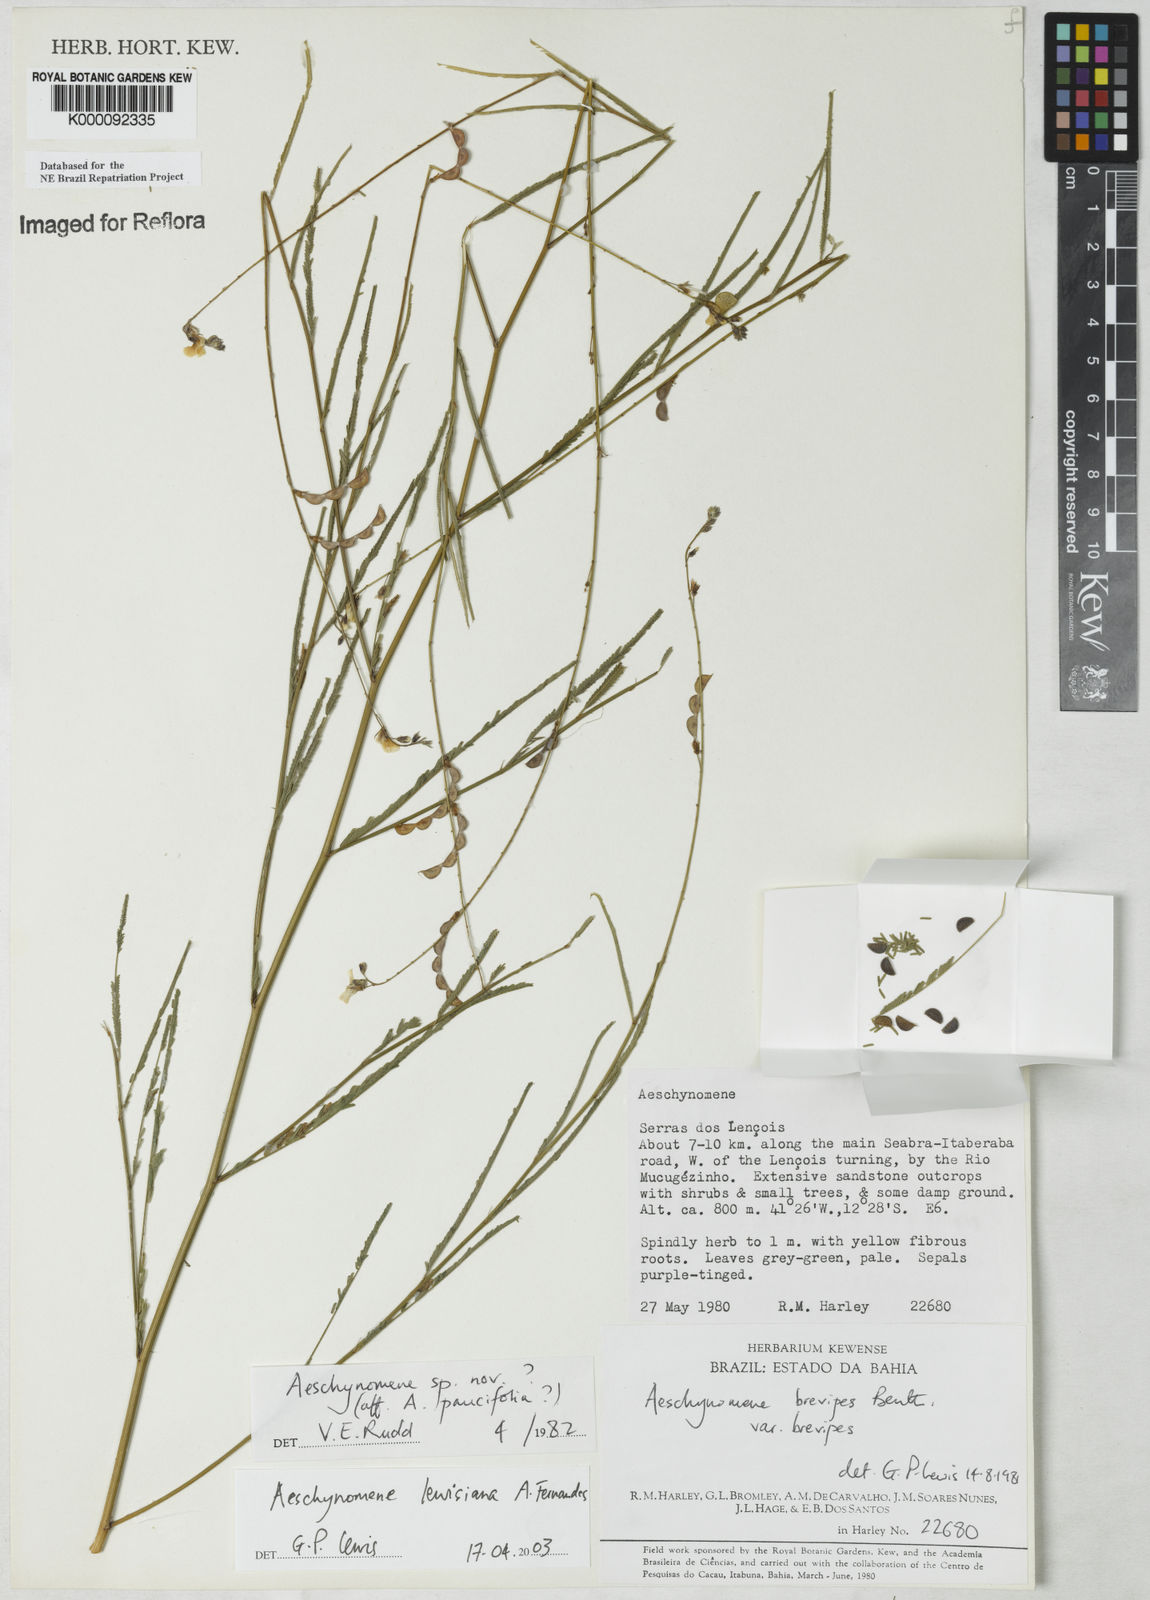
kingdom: Plantae
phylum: Tracheophyta
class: Magnoliopsida
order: Fabales
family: Fabaceae
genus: Ctenodon
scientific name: Ctenodon lewisianus
